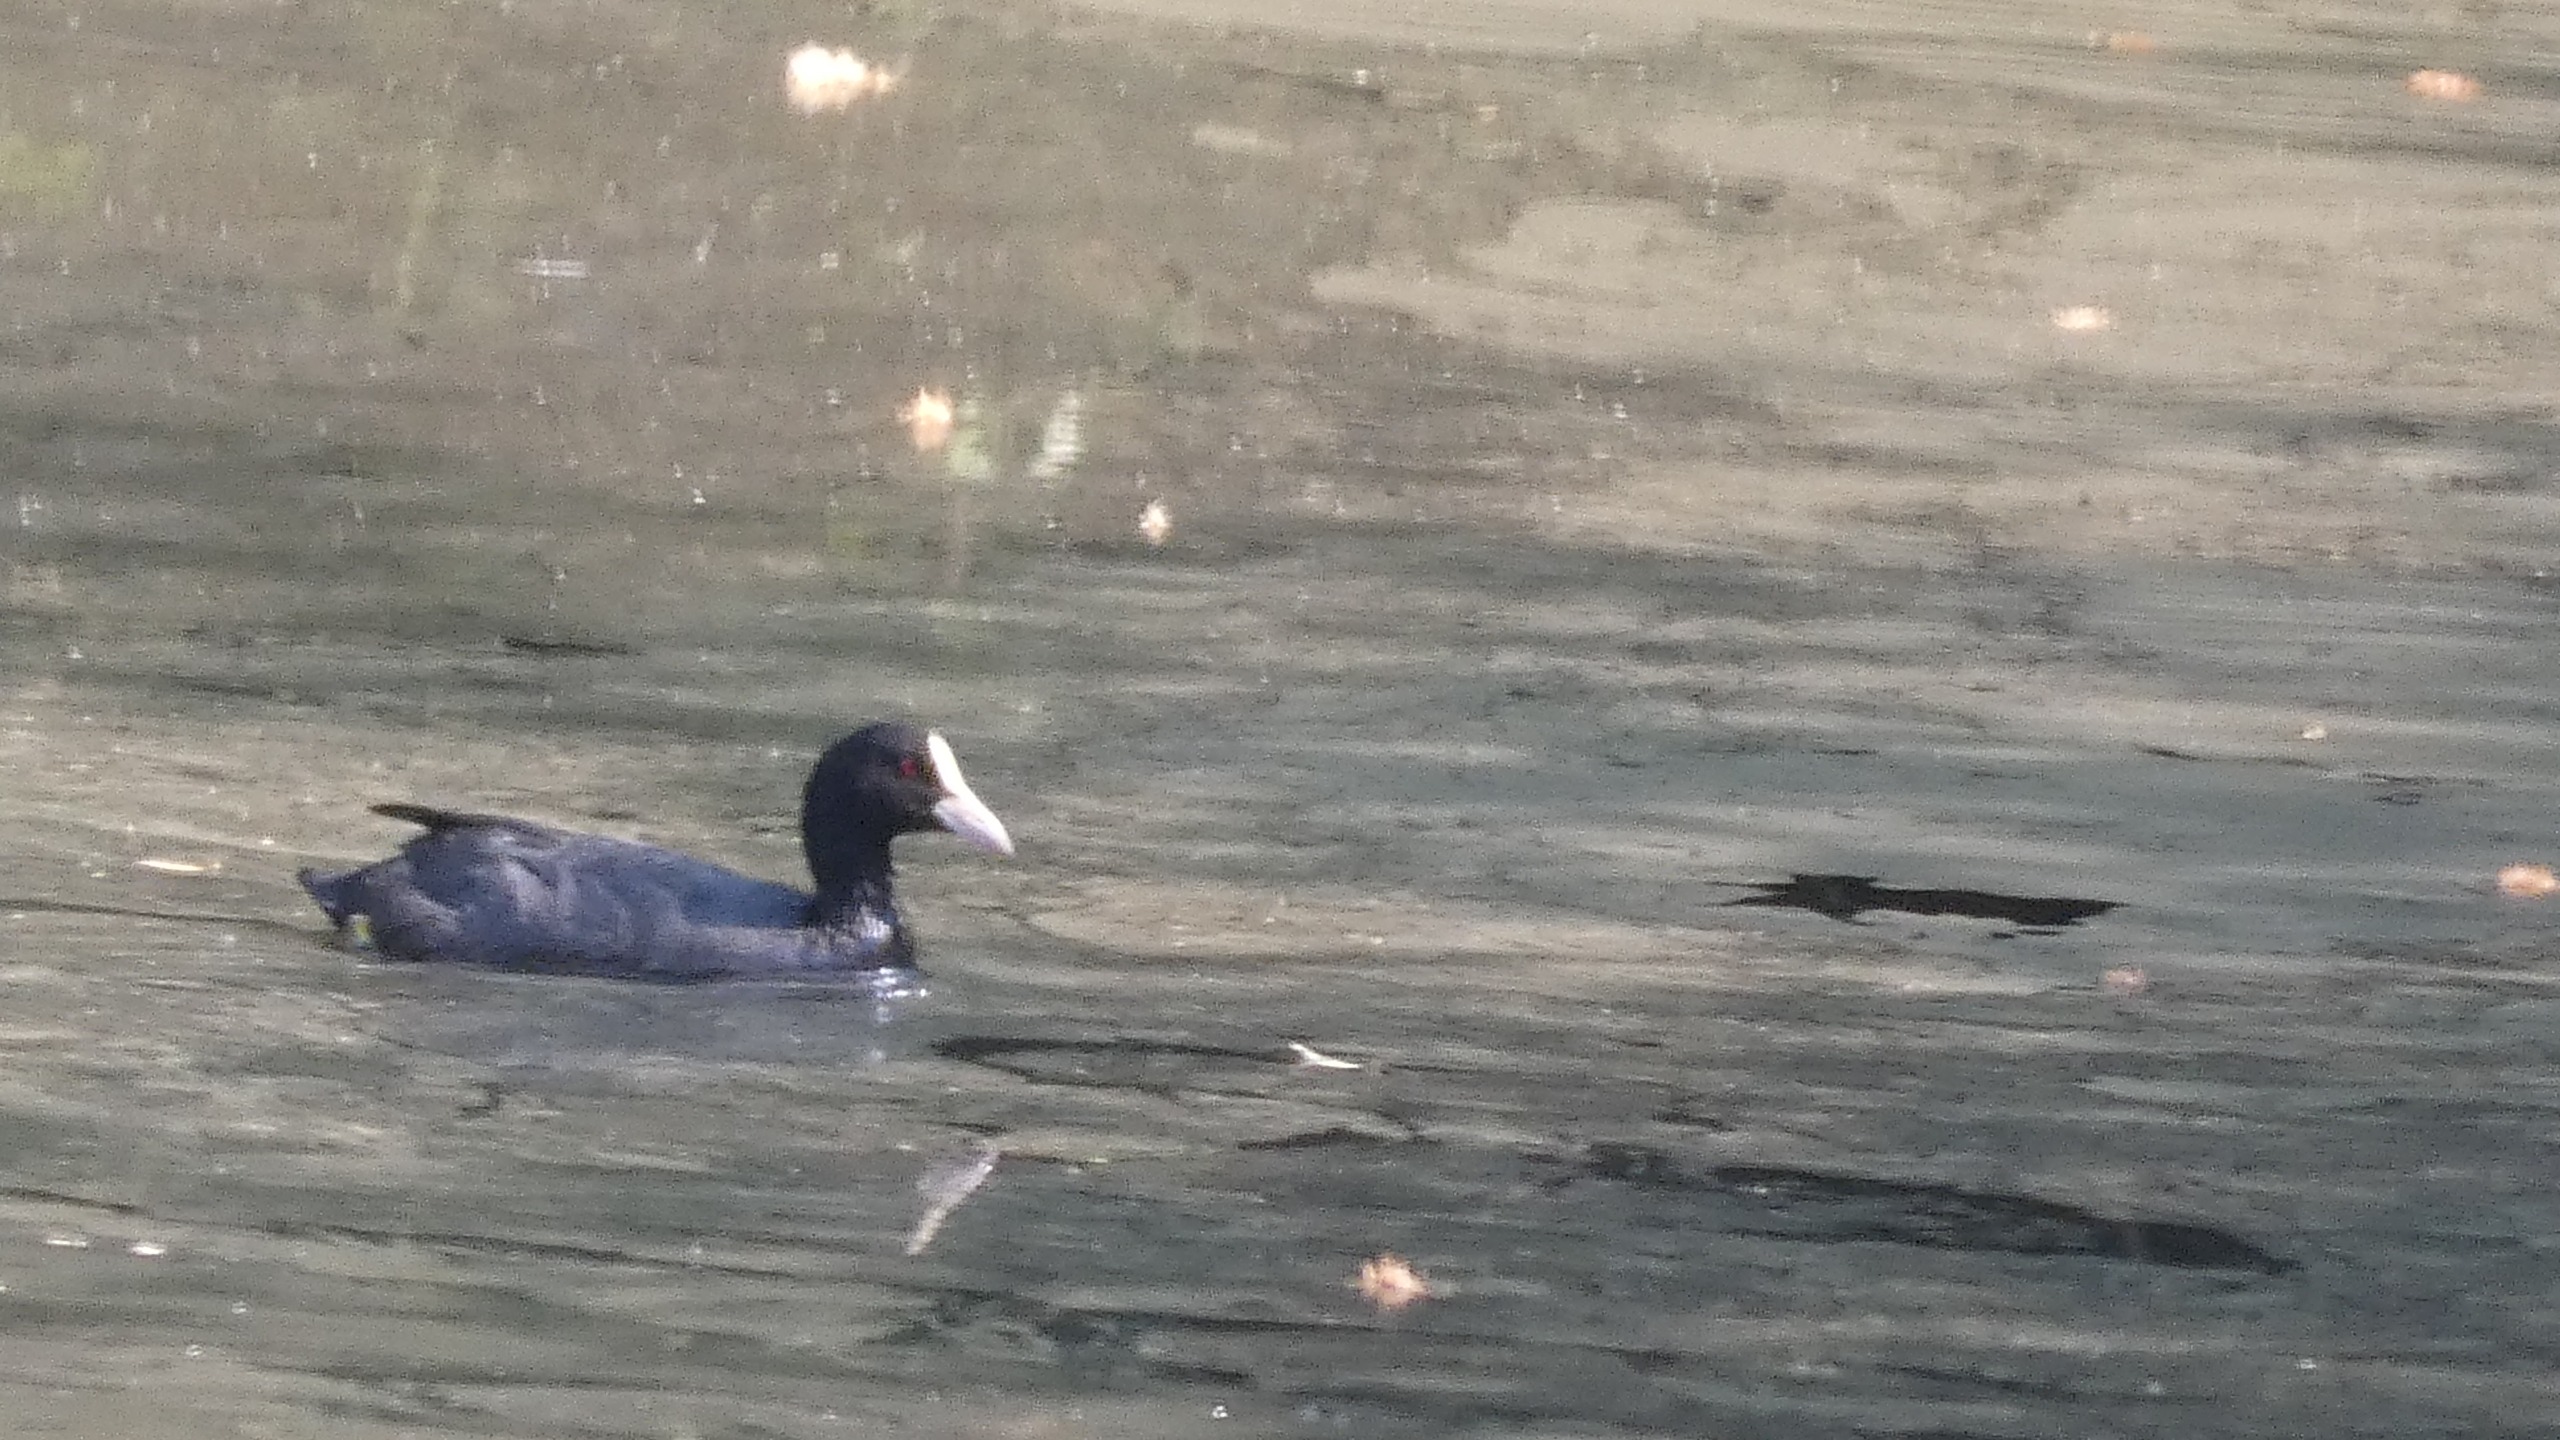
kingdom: Animalia
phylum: Chordata
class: Aves
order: Gruiformes
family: Rallidae
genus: Fulica
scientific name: Fulica atra
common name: Blishøne
